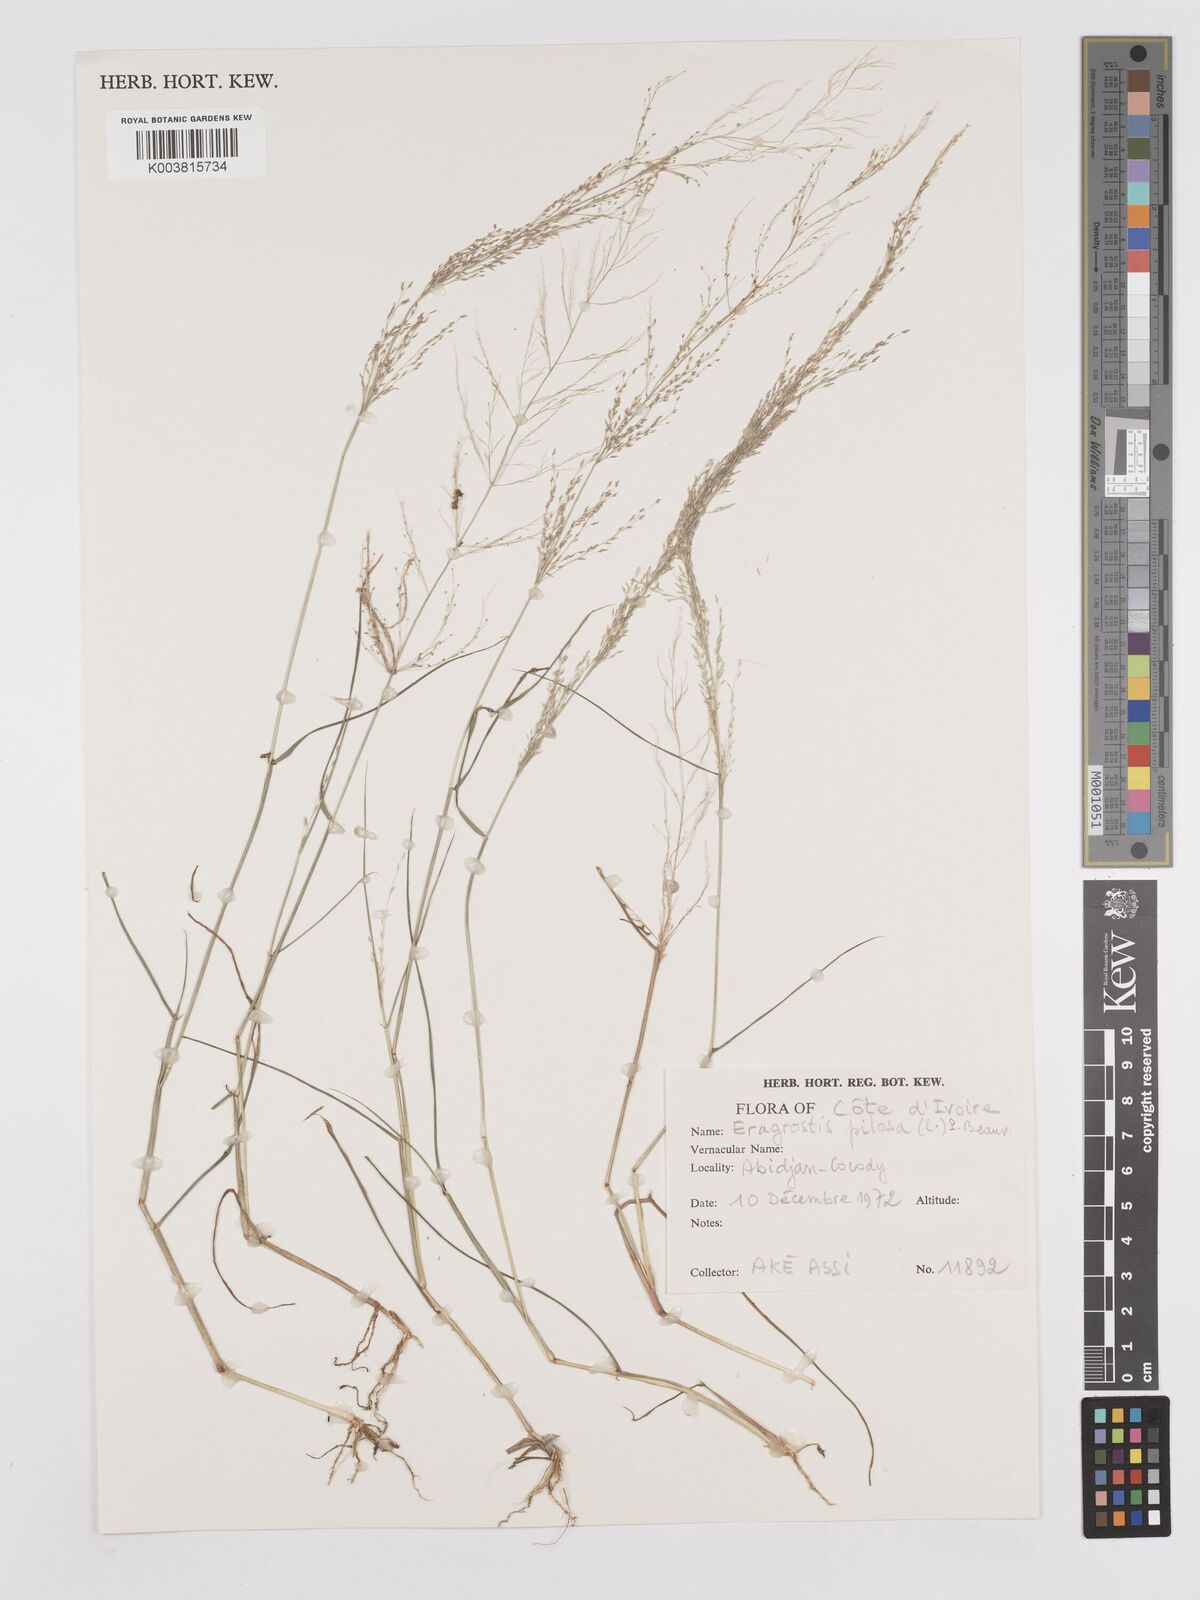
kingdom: Plantae
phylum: Tracheophyta
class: Liliopsida
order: Poales
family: Poaceae
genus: Eragrostis
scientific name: Eragrostis pilosa
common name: Indian lovegrass
